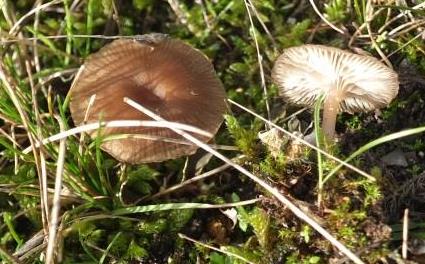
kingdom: Fungi
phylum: Basidiomycota
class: Agaricomycetes
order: Agaricales
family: Tricholomataceae
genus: Gamundia
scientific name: Gamundia xerophila
